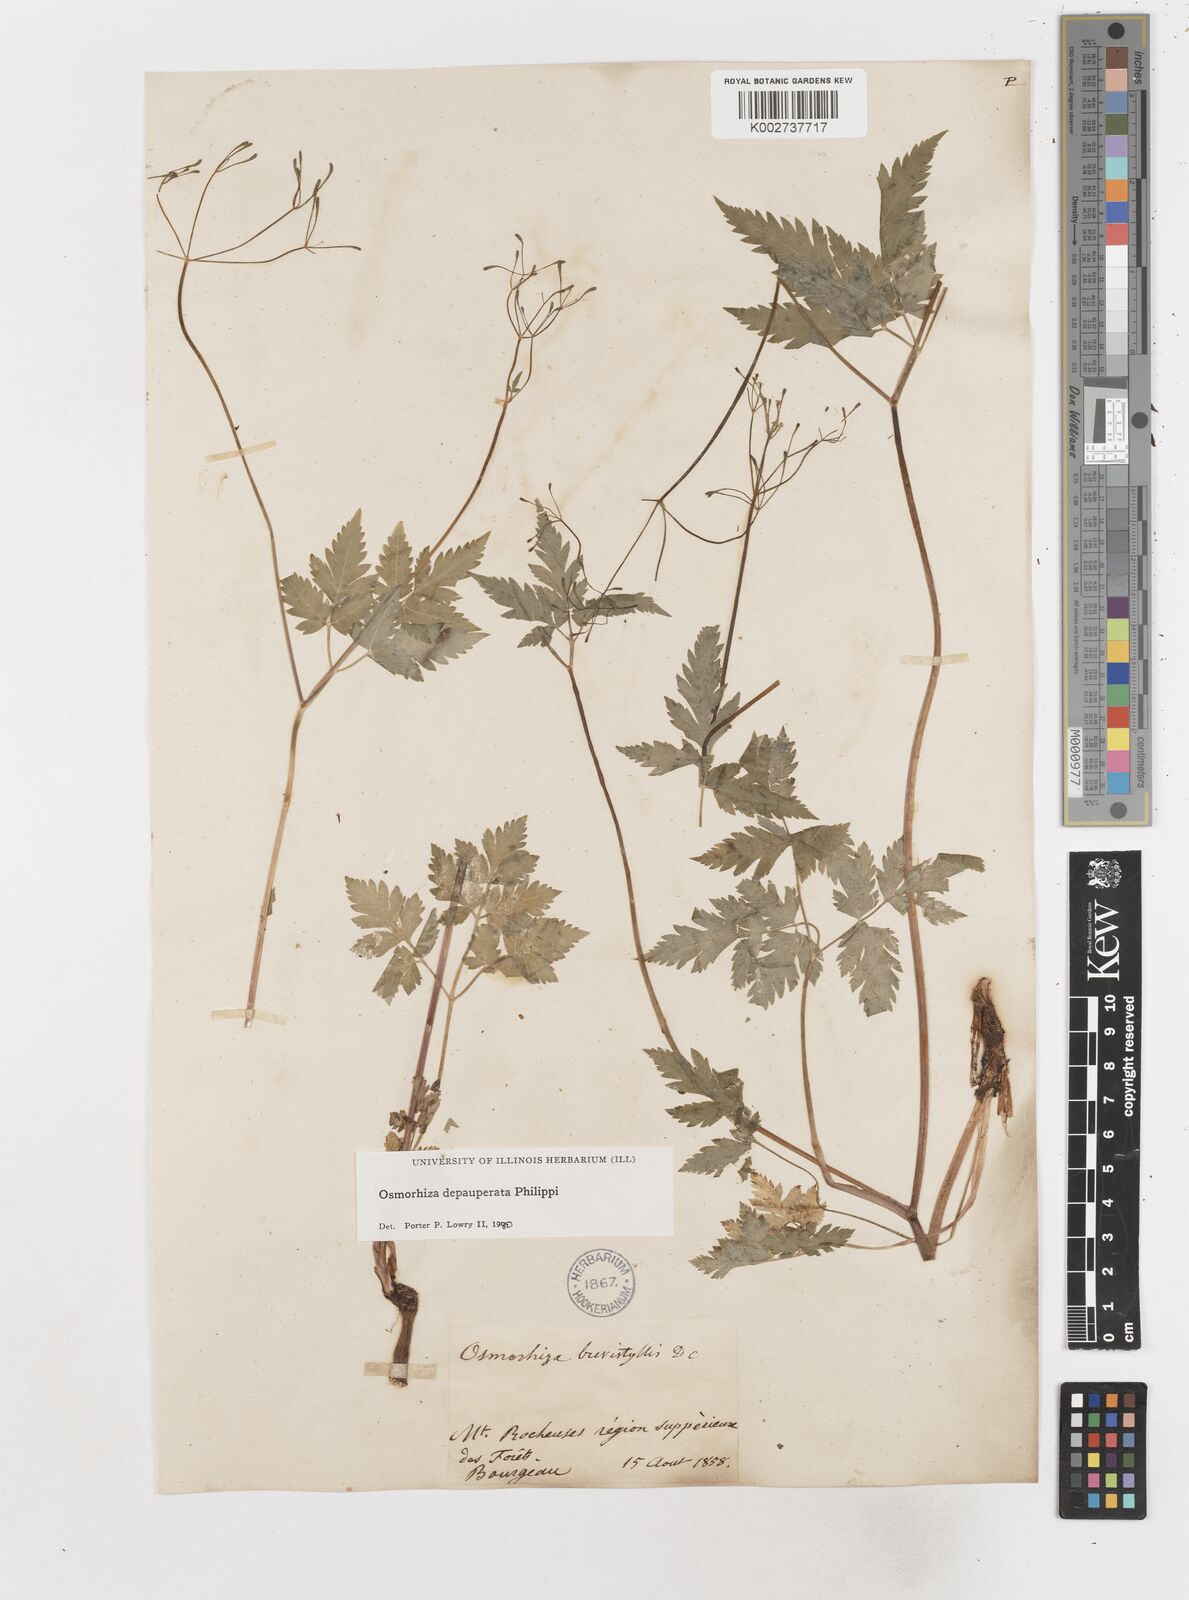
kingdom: Plantae
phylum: Tracheophyta
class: Magnoliopsida
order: Apiales
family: Apiaceae
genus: Osmorhiza
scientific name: Osmorhiza depauperata
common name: Blunt sweet cicely
